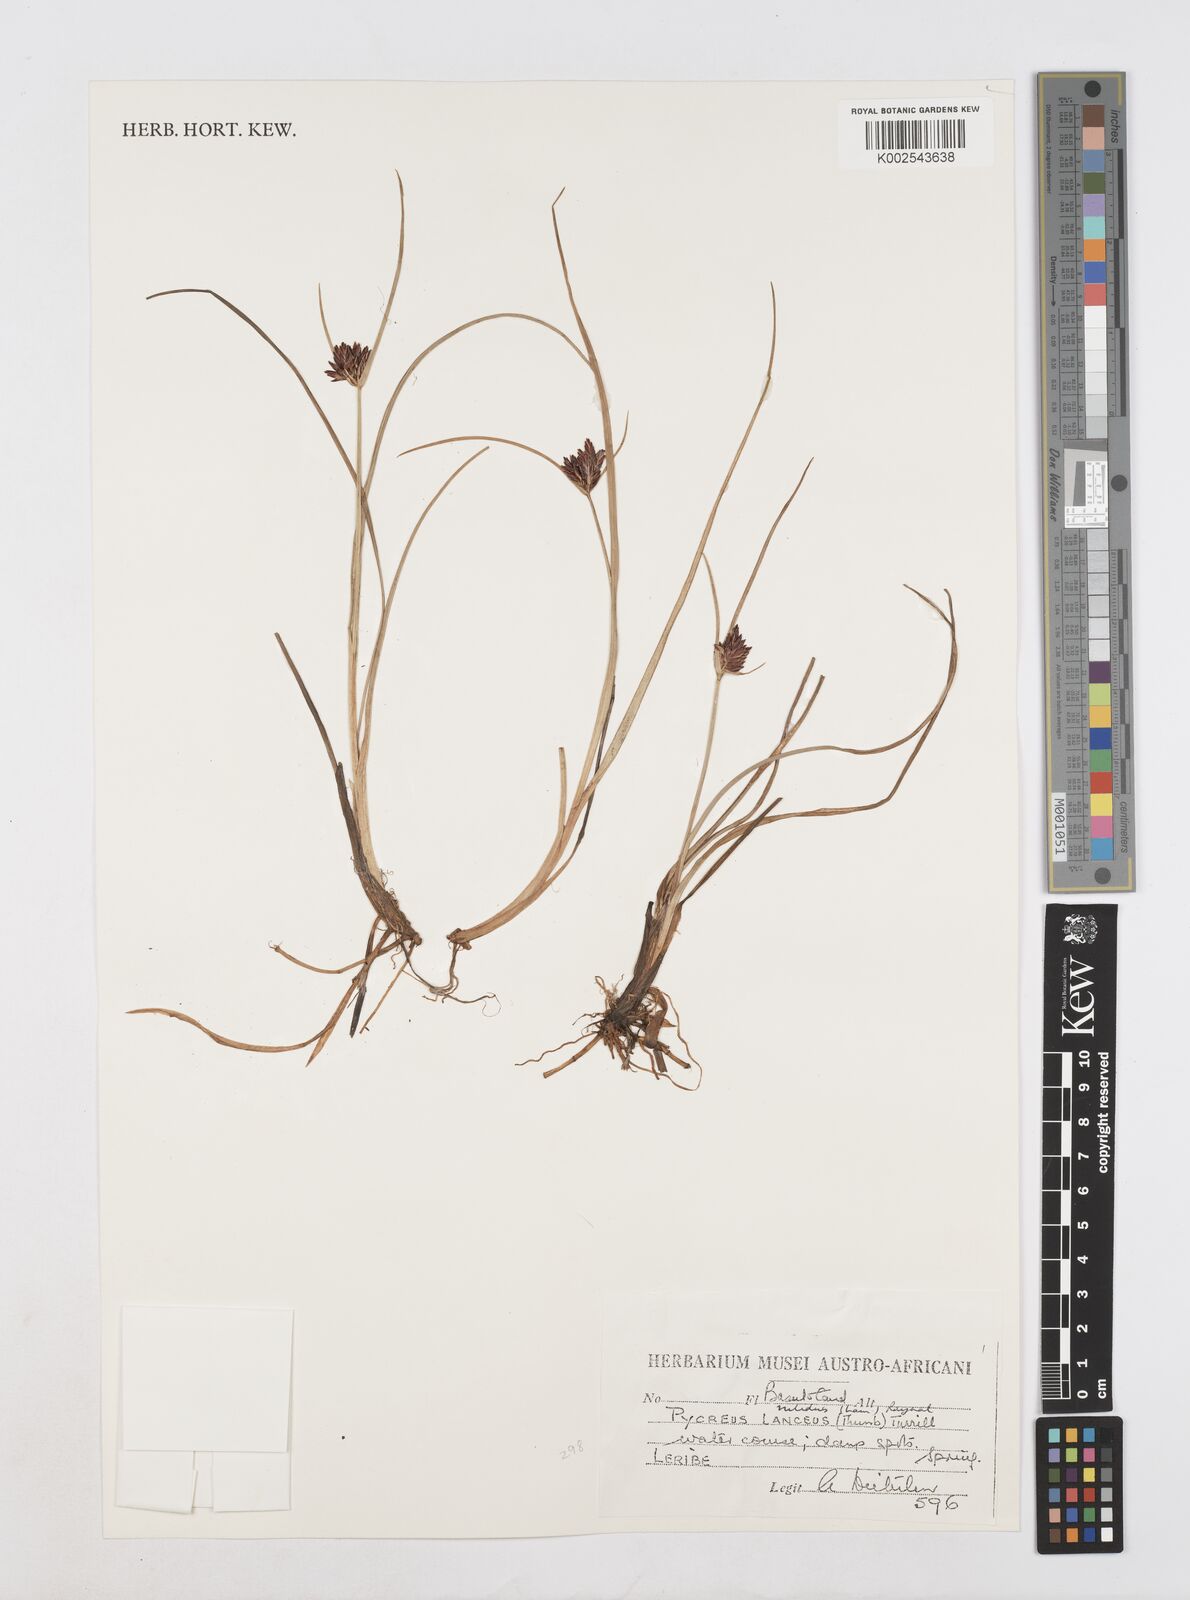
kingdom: Plantae
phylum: Tracheophyta
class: Liliopsida
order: Poales
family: Cyperaceae
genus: Cyperus
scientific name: Cyperus nitidus
